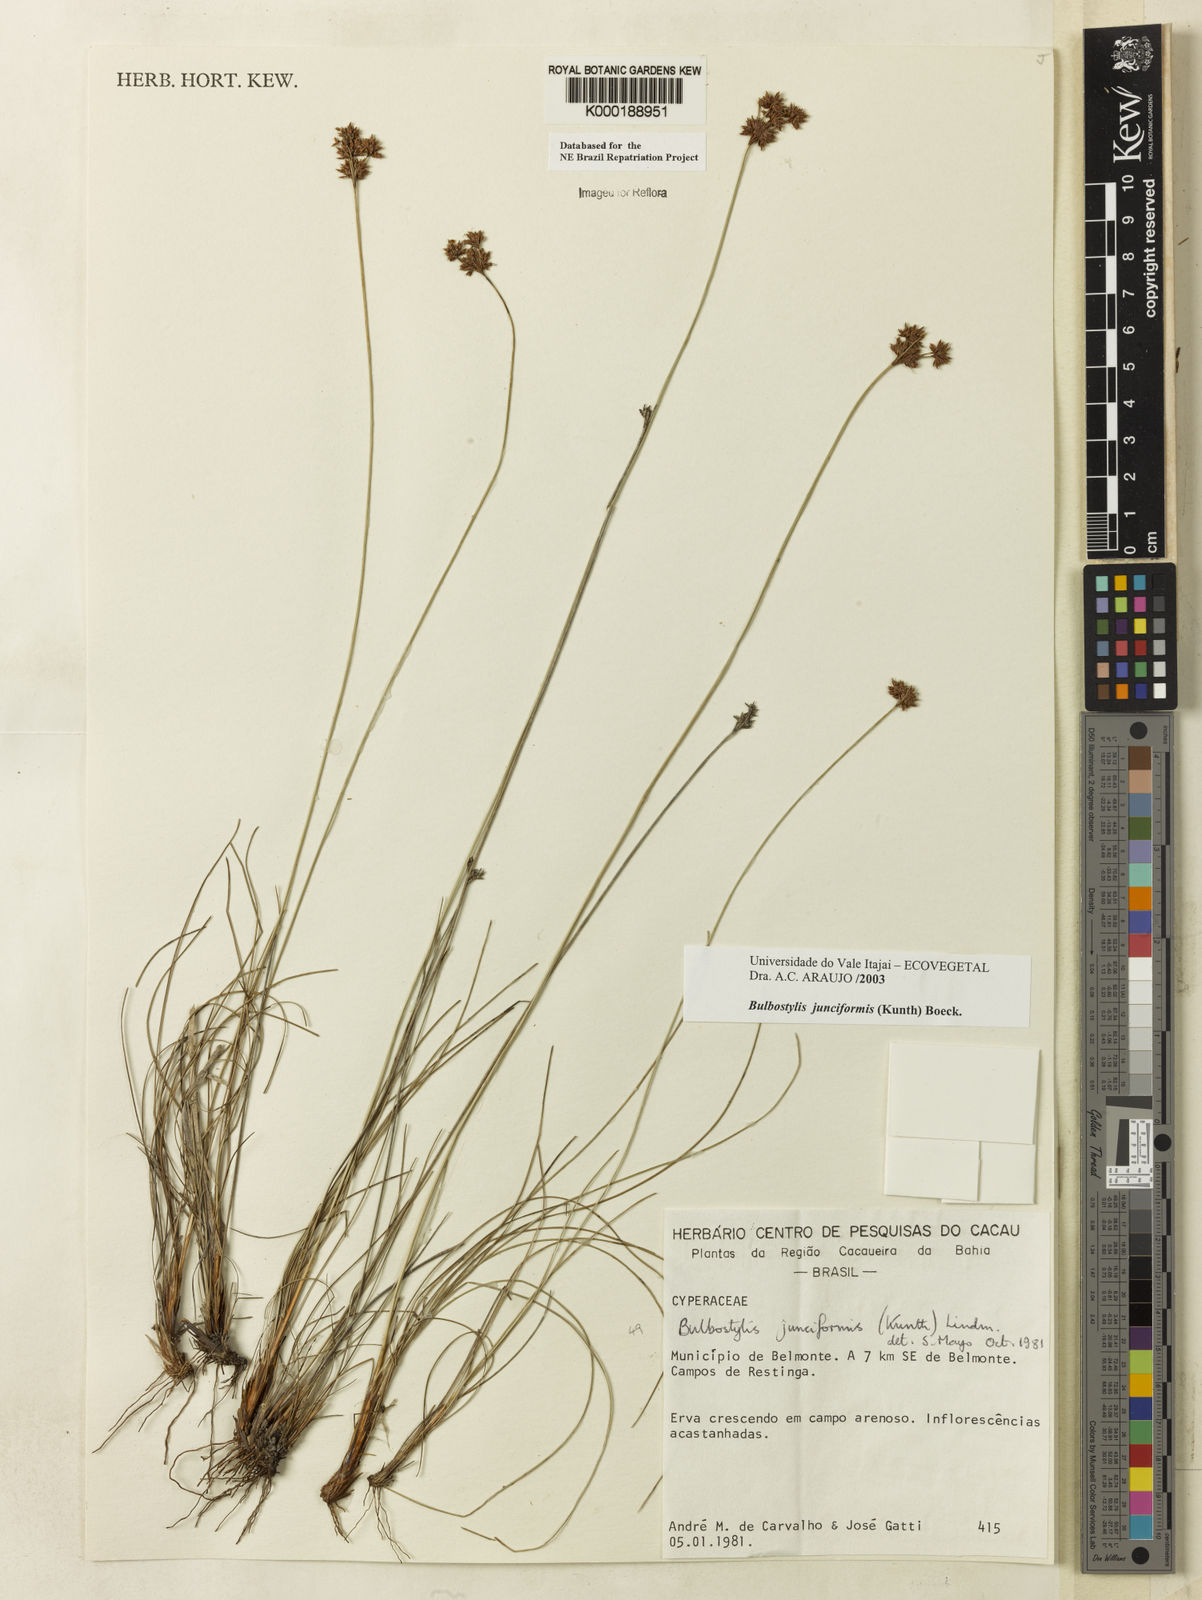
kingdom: Plantae
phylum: Tracheophyta
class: Liliopsida
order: Poales
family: Cyperaceae
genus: Bulbostylis
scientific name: Bulbostylis
